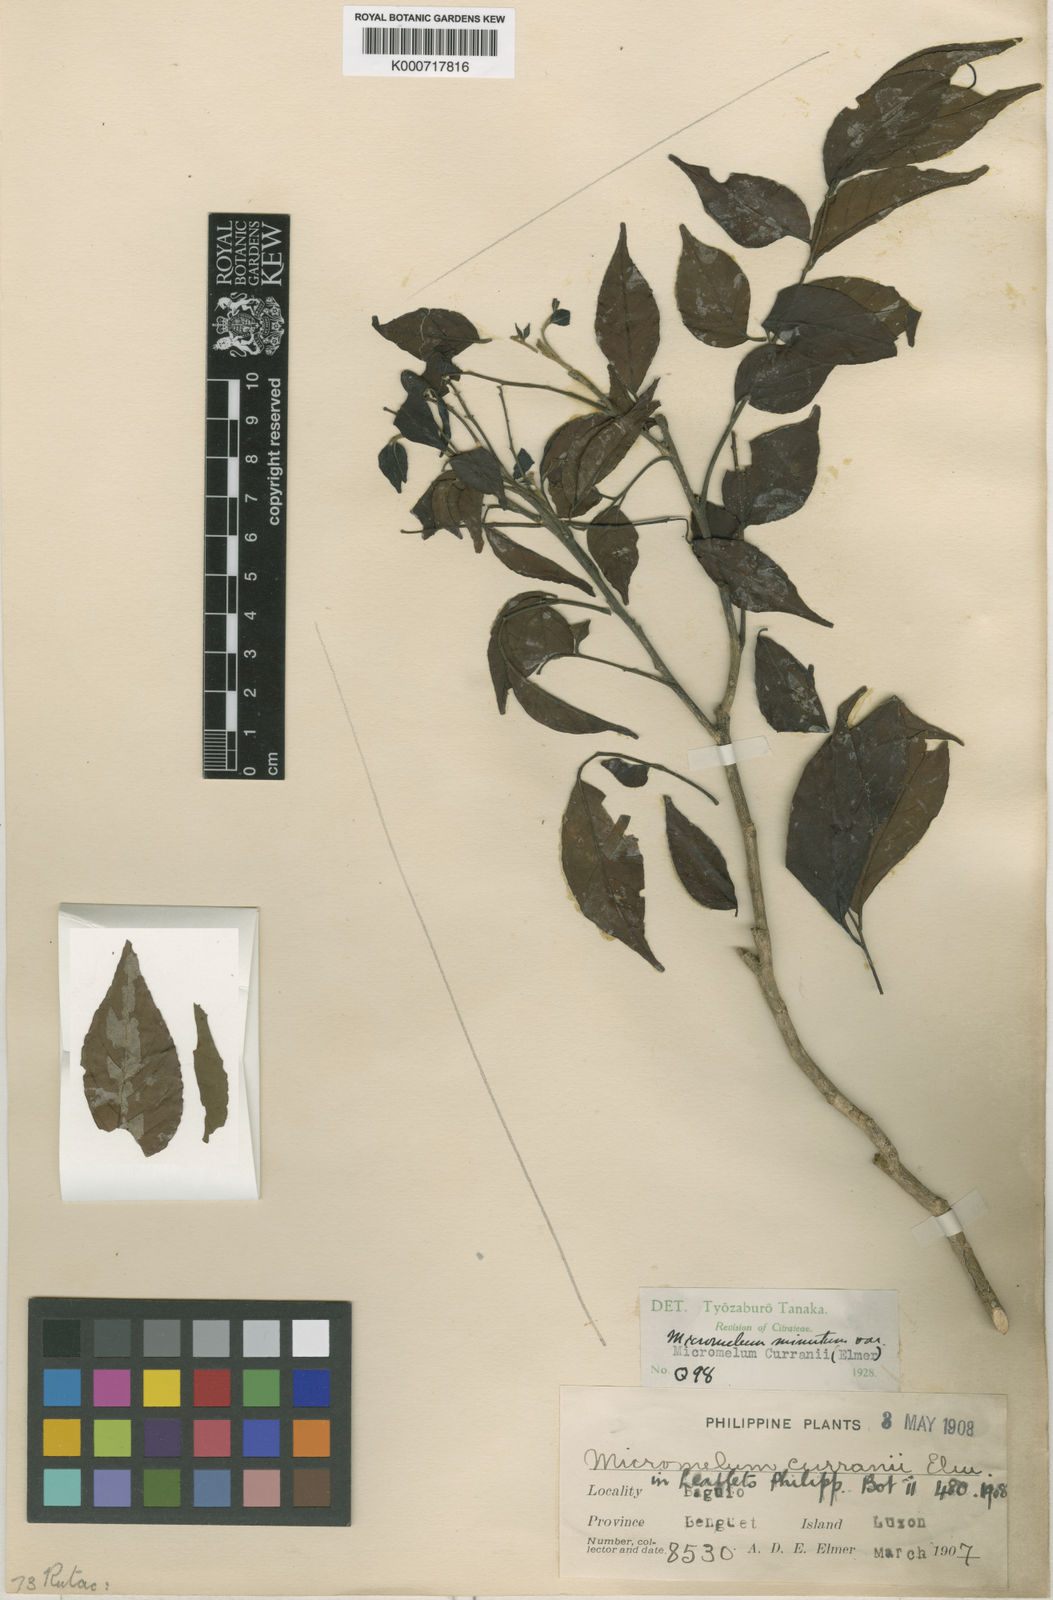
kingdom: Plantae
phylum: Tracheophyta
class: Magnoliopsida
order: Sapindales
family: Rutaceae
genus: Micromelum
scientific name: Micromelum minutum
